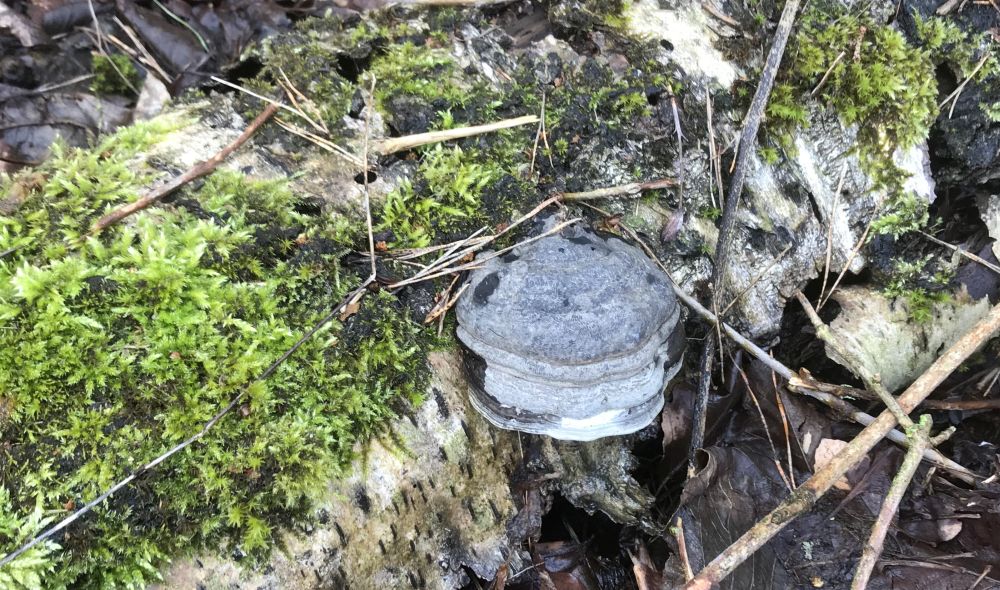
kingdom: Fungi
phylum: Basidiomycota
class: Agaricomycetes
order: Polyporales
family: Polyporaceae
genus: Fomes
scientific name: Fomes fomentarius
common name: tøndersvamp
